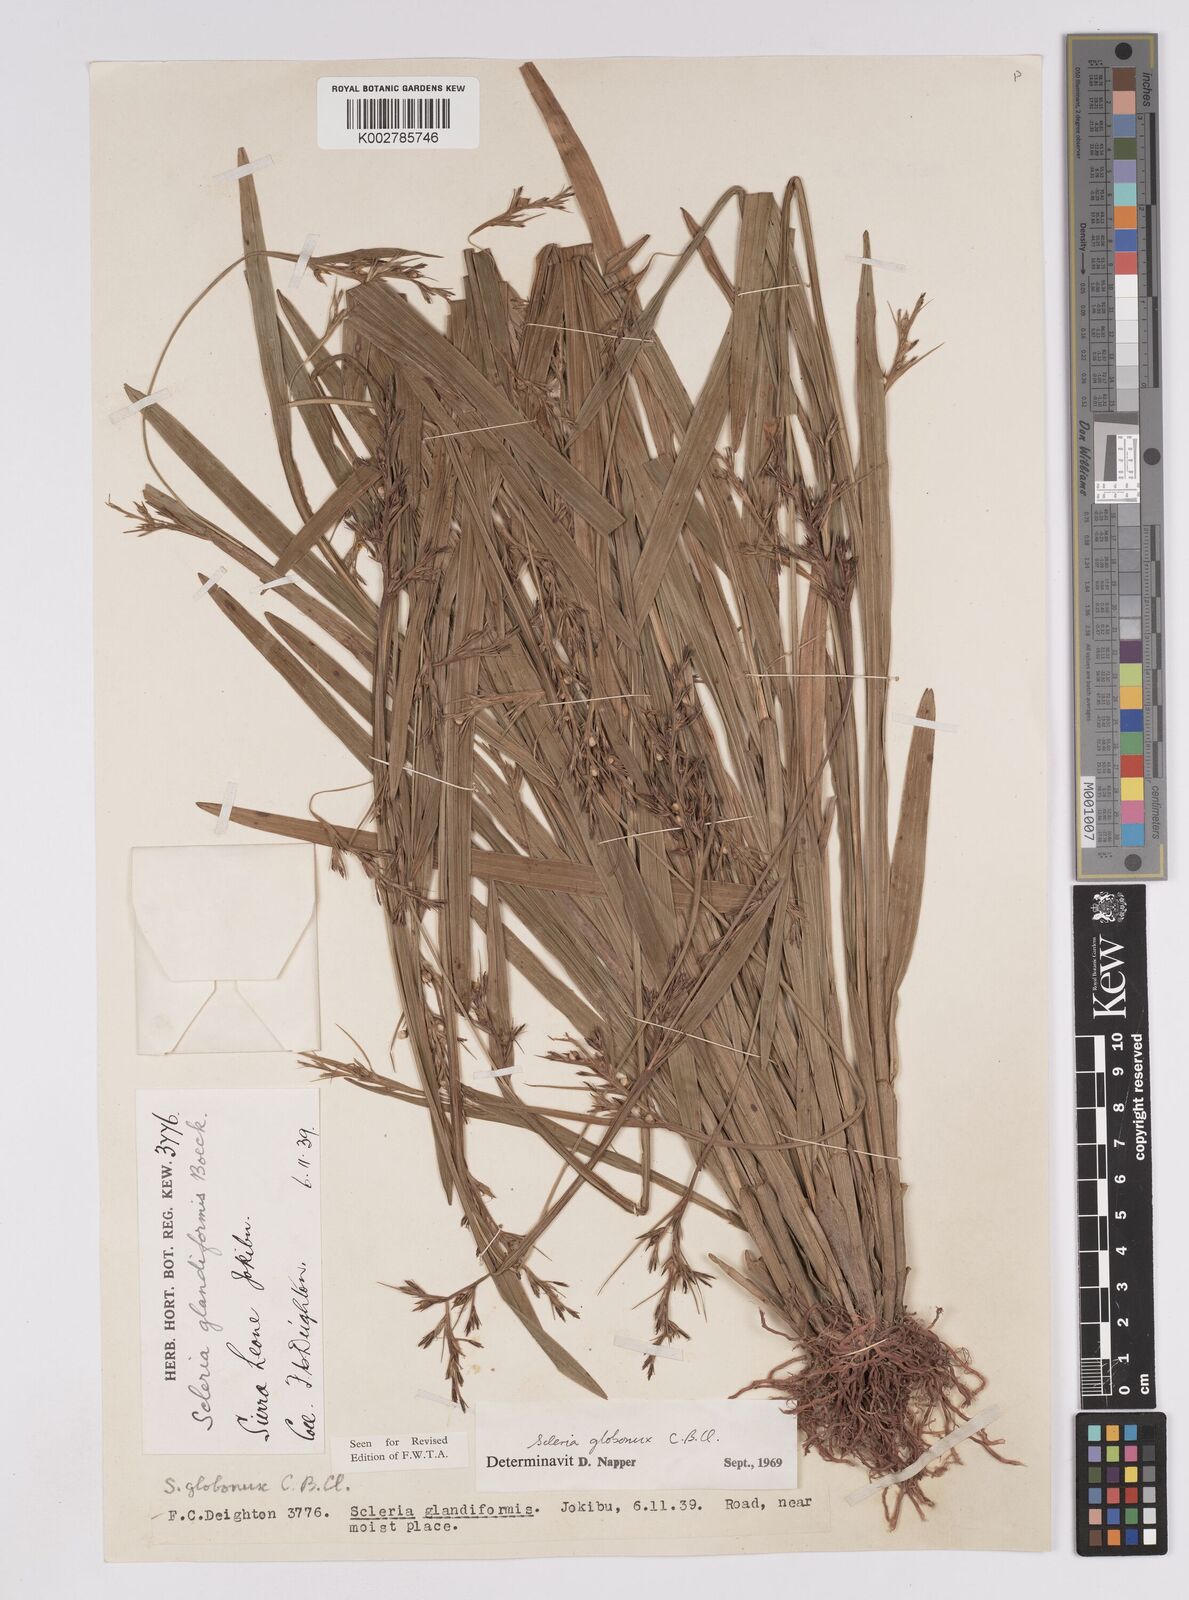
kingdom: Plantae
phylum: Tracheophyta
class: Liliopsida
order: Poales
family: Cyperaceae
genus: Scleria
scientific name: Scleria globonux
